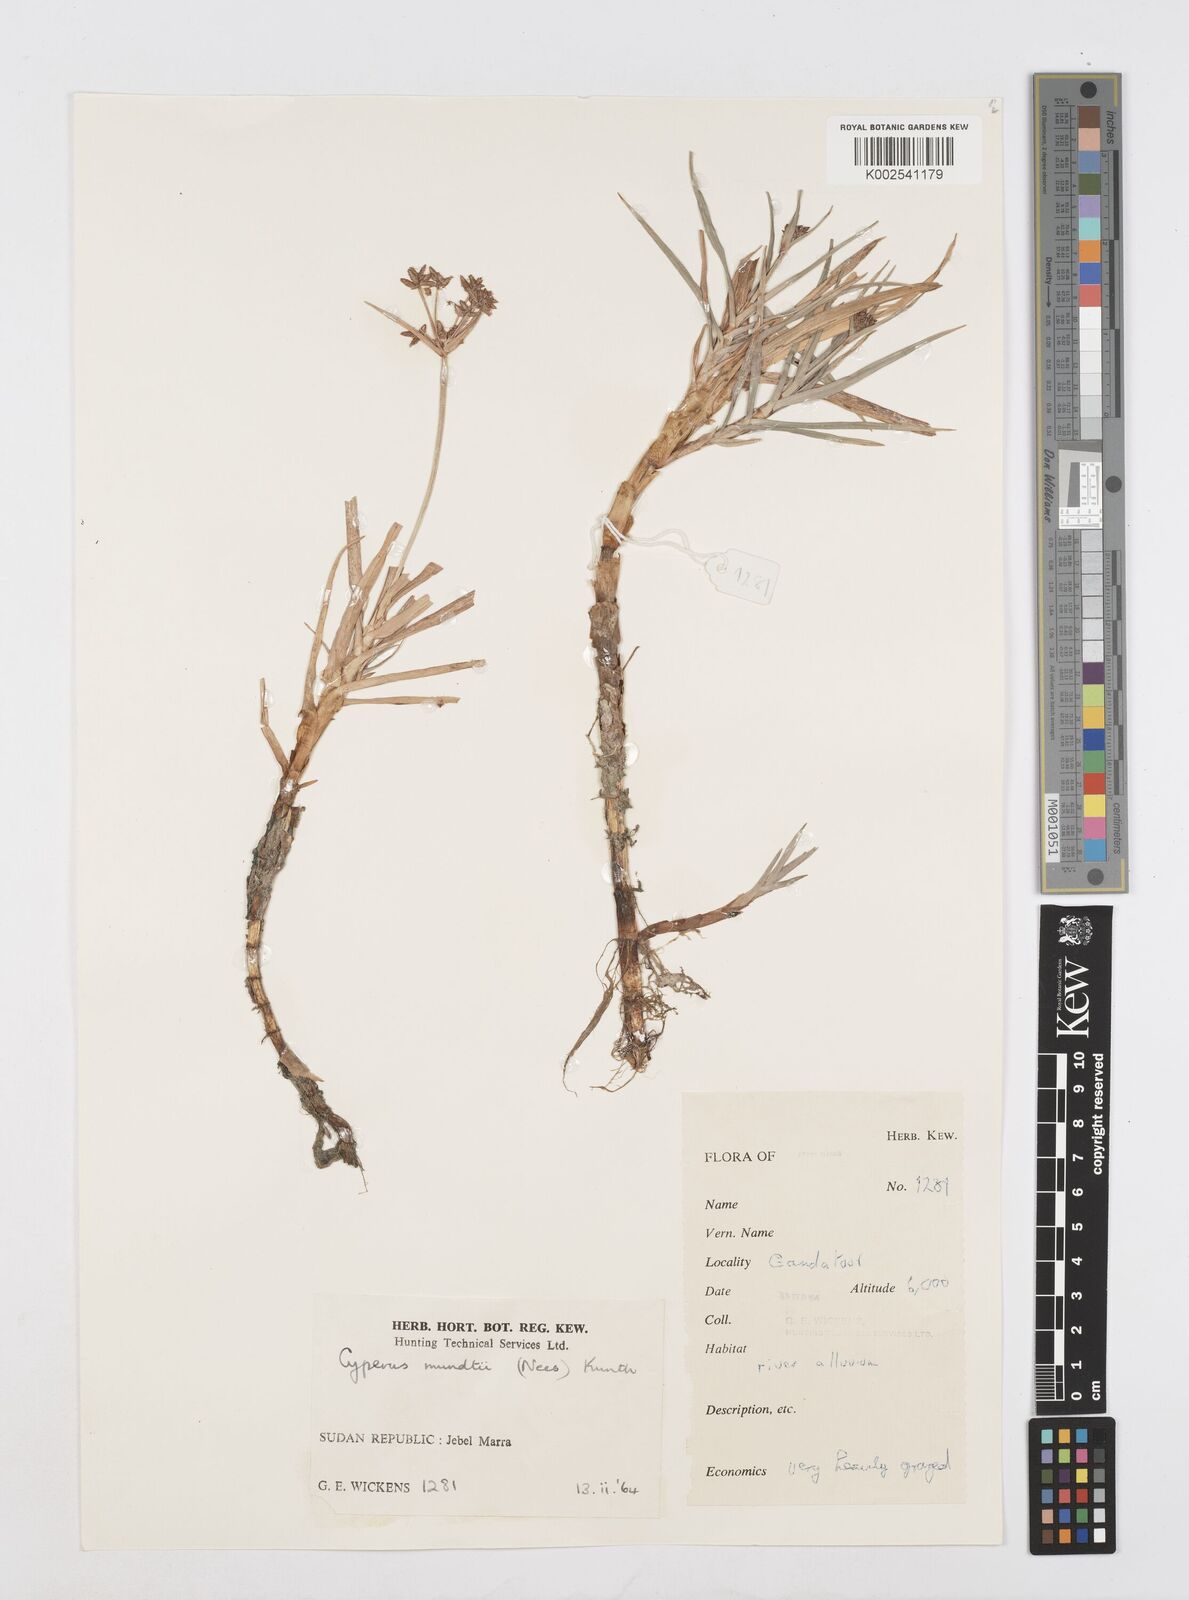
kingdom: Plantae
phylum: Tracheophyta
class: Liliopsida
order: Poales
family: Cyperaceae
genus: Cyperus
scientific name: Cyperus mundii
